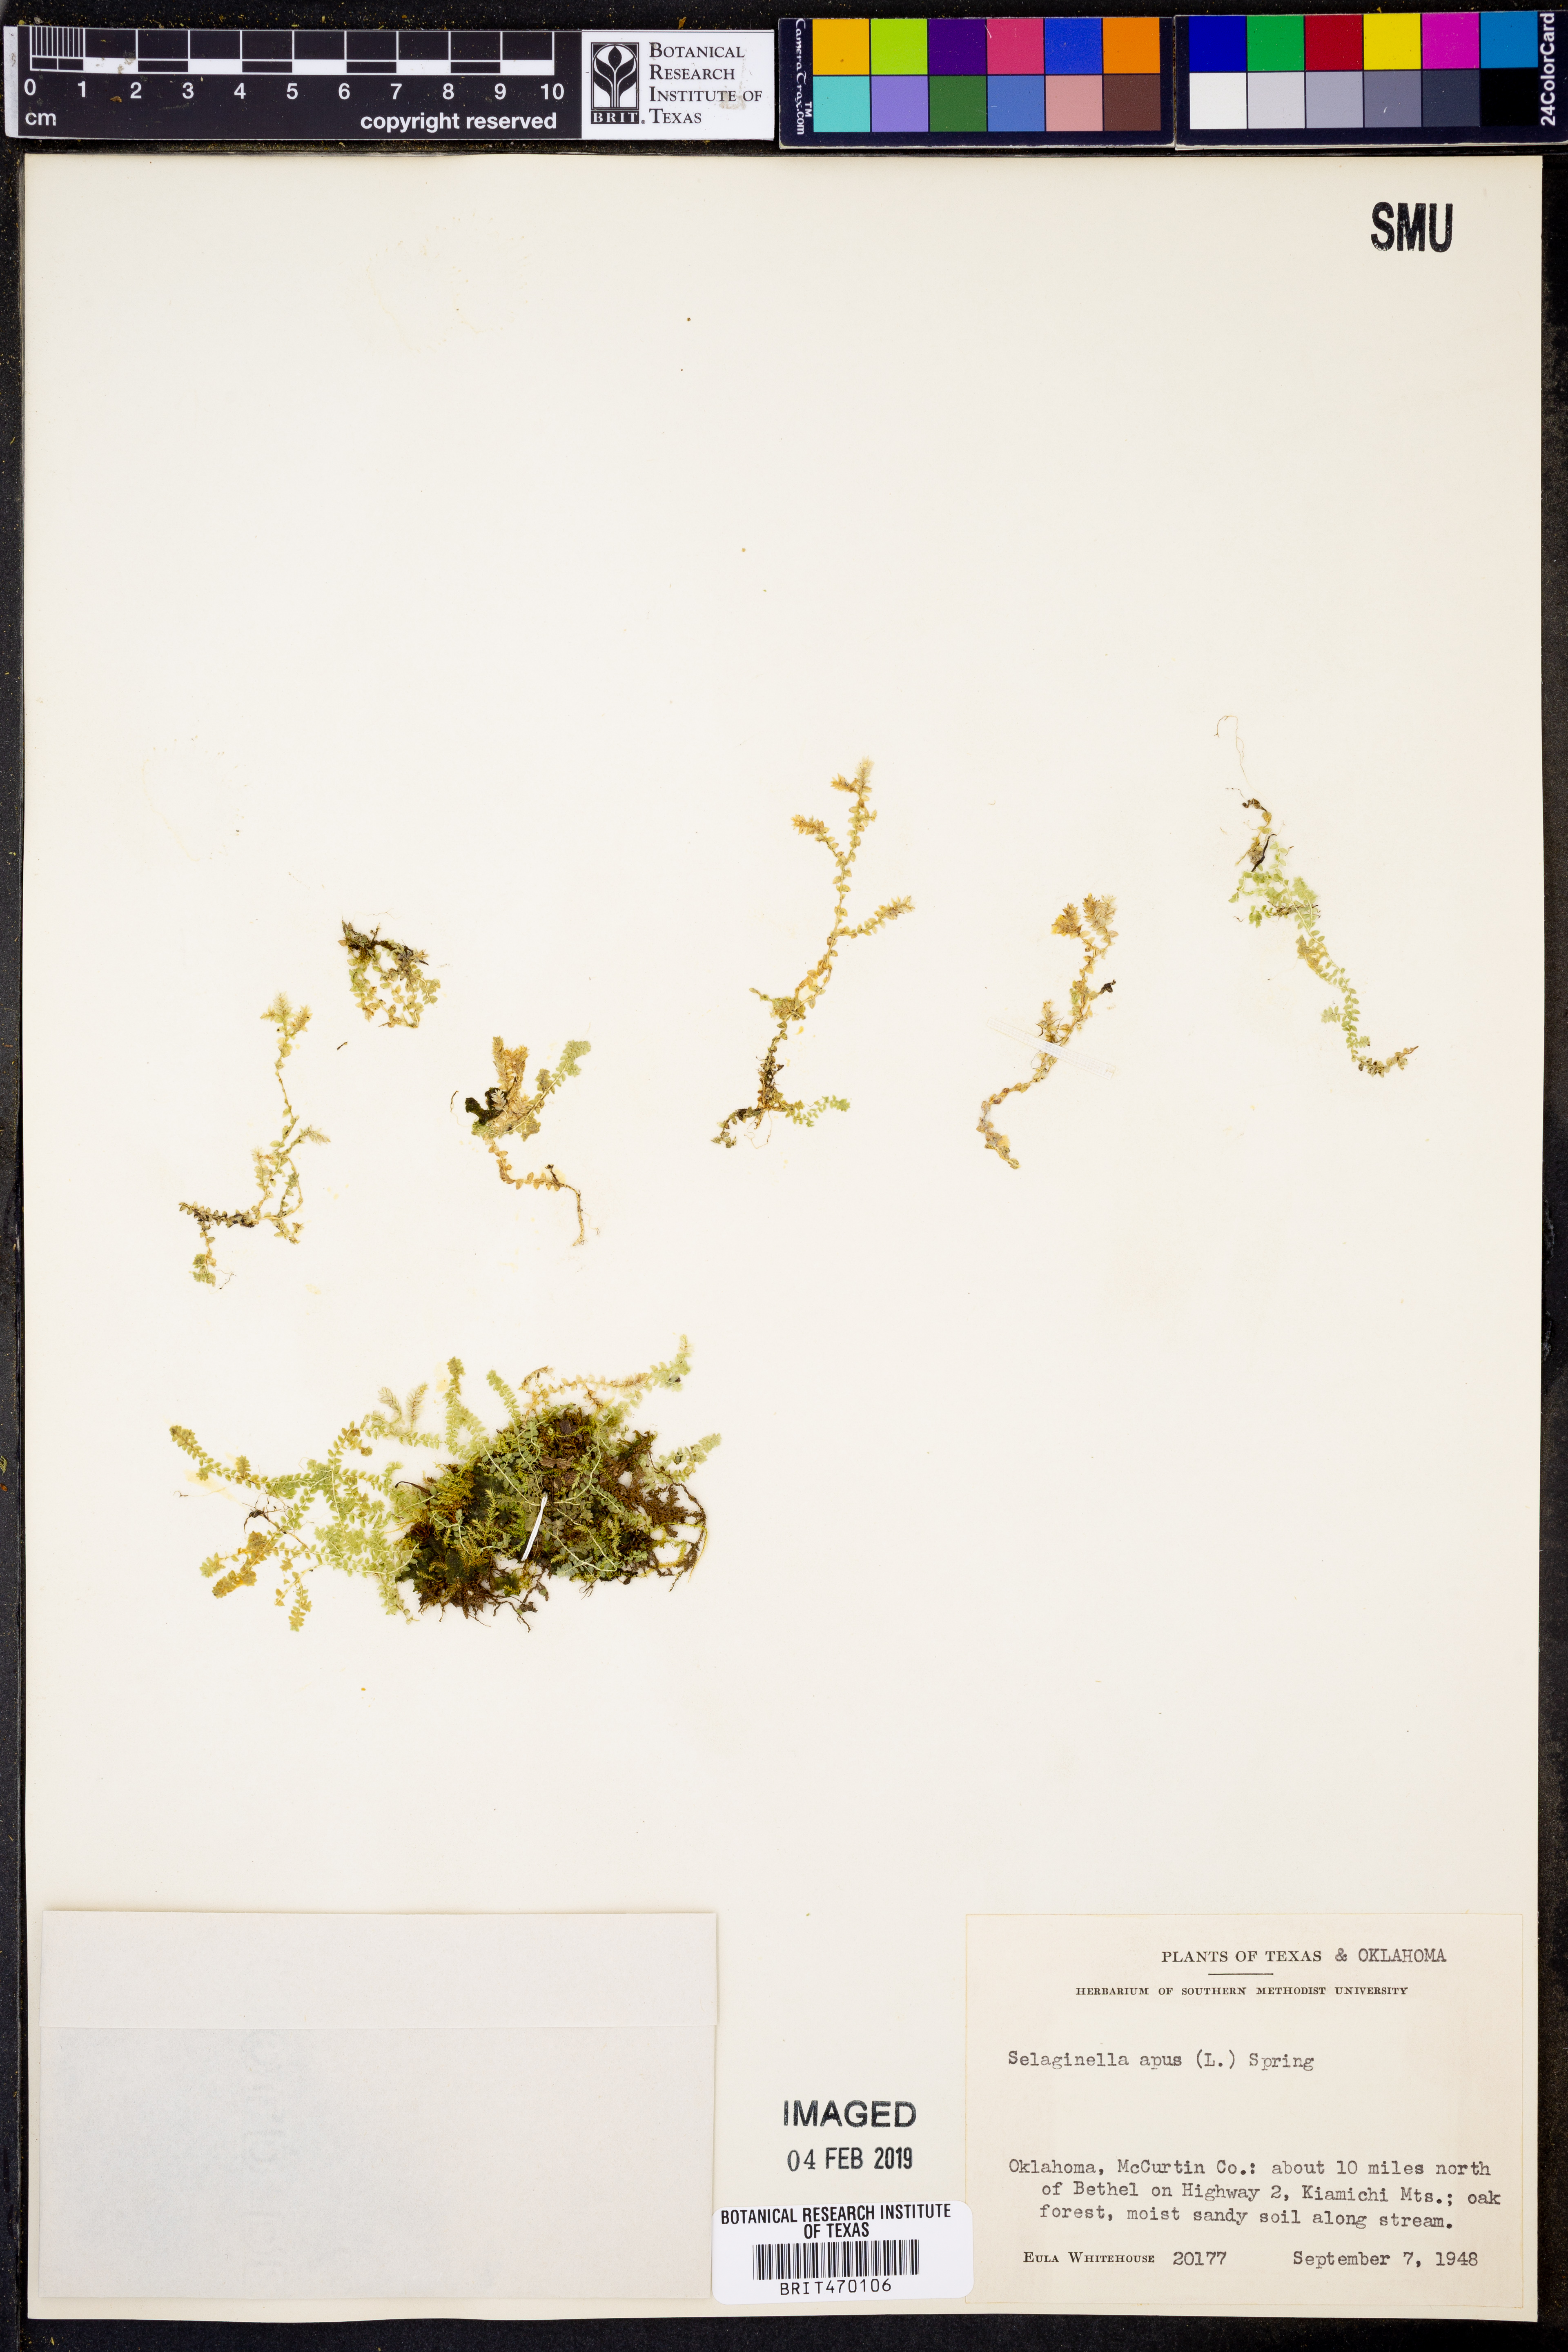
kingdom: Plantae
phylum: Tracheophyta
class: Lycopodiopsida
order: Selaginellales
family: Selaginellaceae
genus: Selaginella
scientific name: Selaginella apoda
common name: Creeping spikemoss
